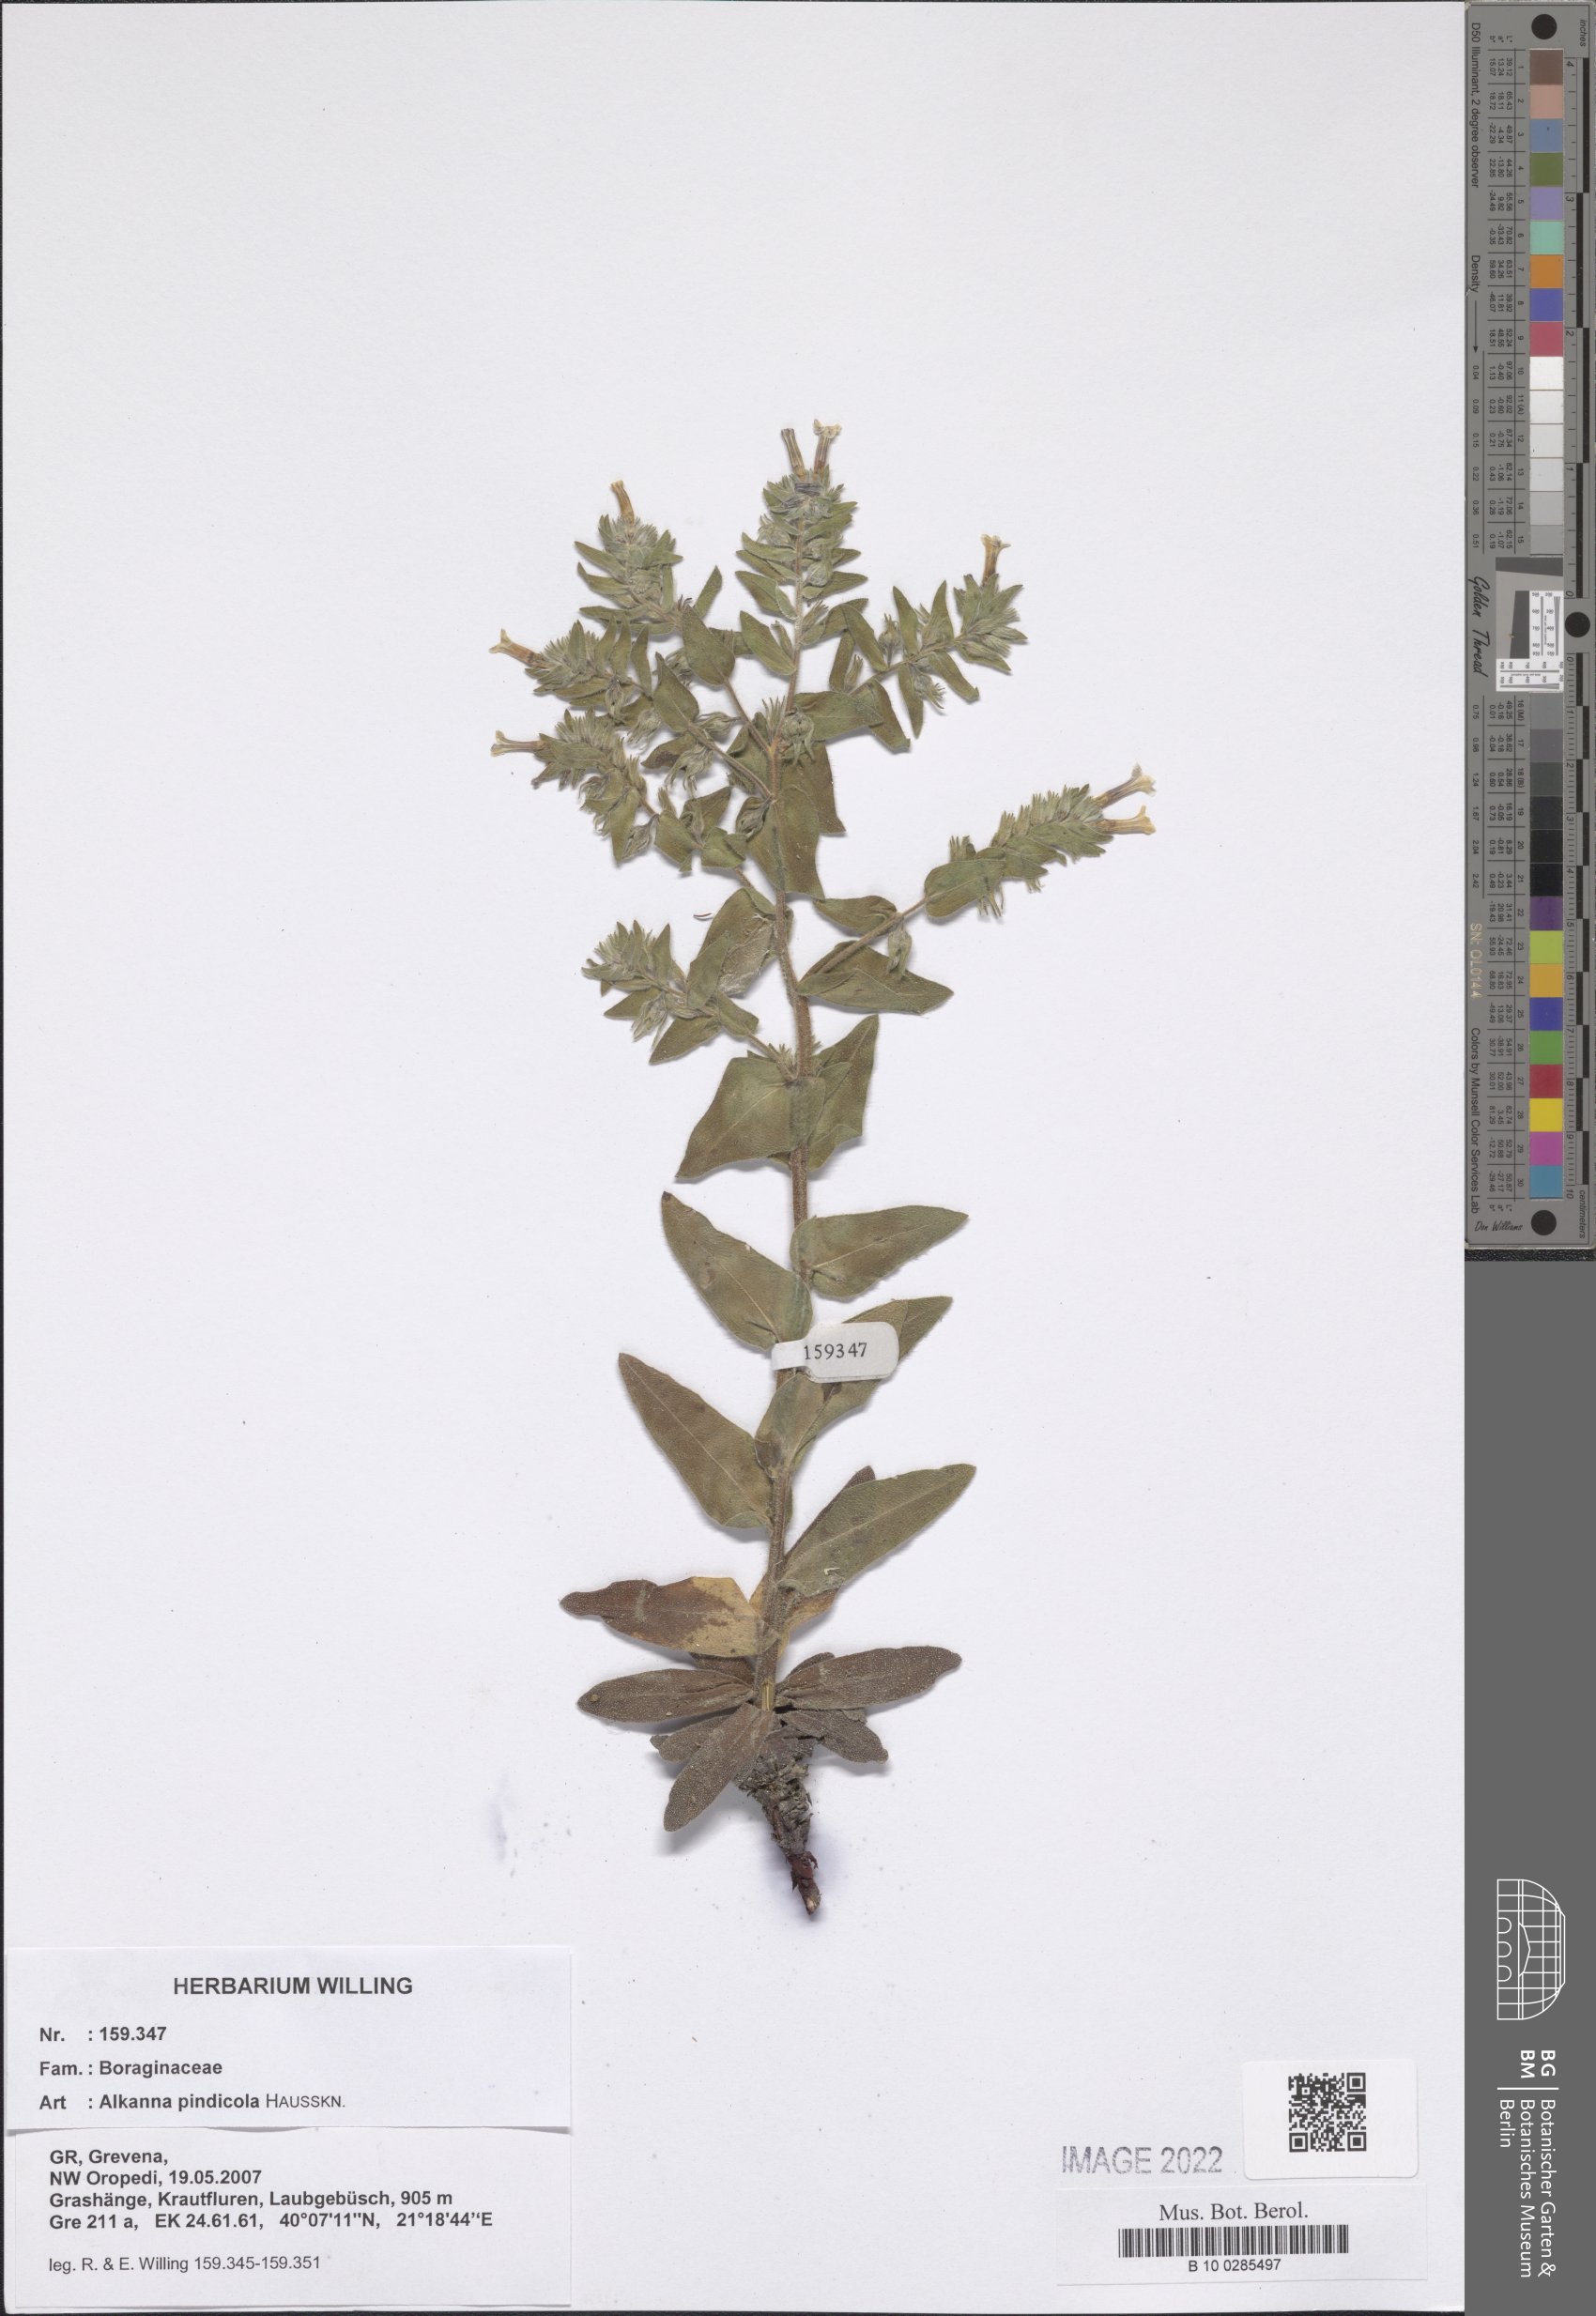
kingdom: Plantae
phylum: Tracheophyta
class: Magnoliopsida
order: Boraginales
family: Boraginaceae
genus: Alkanna
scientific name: Alkanna pindicola
